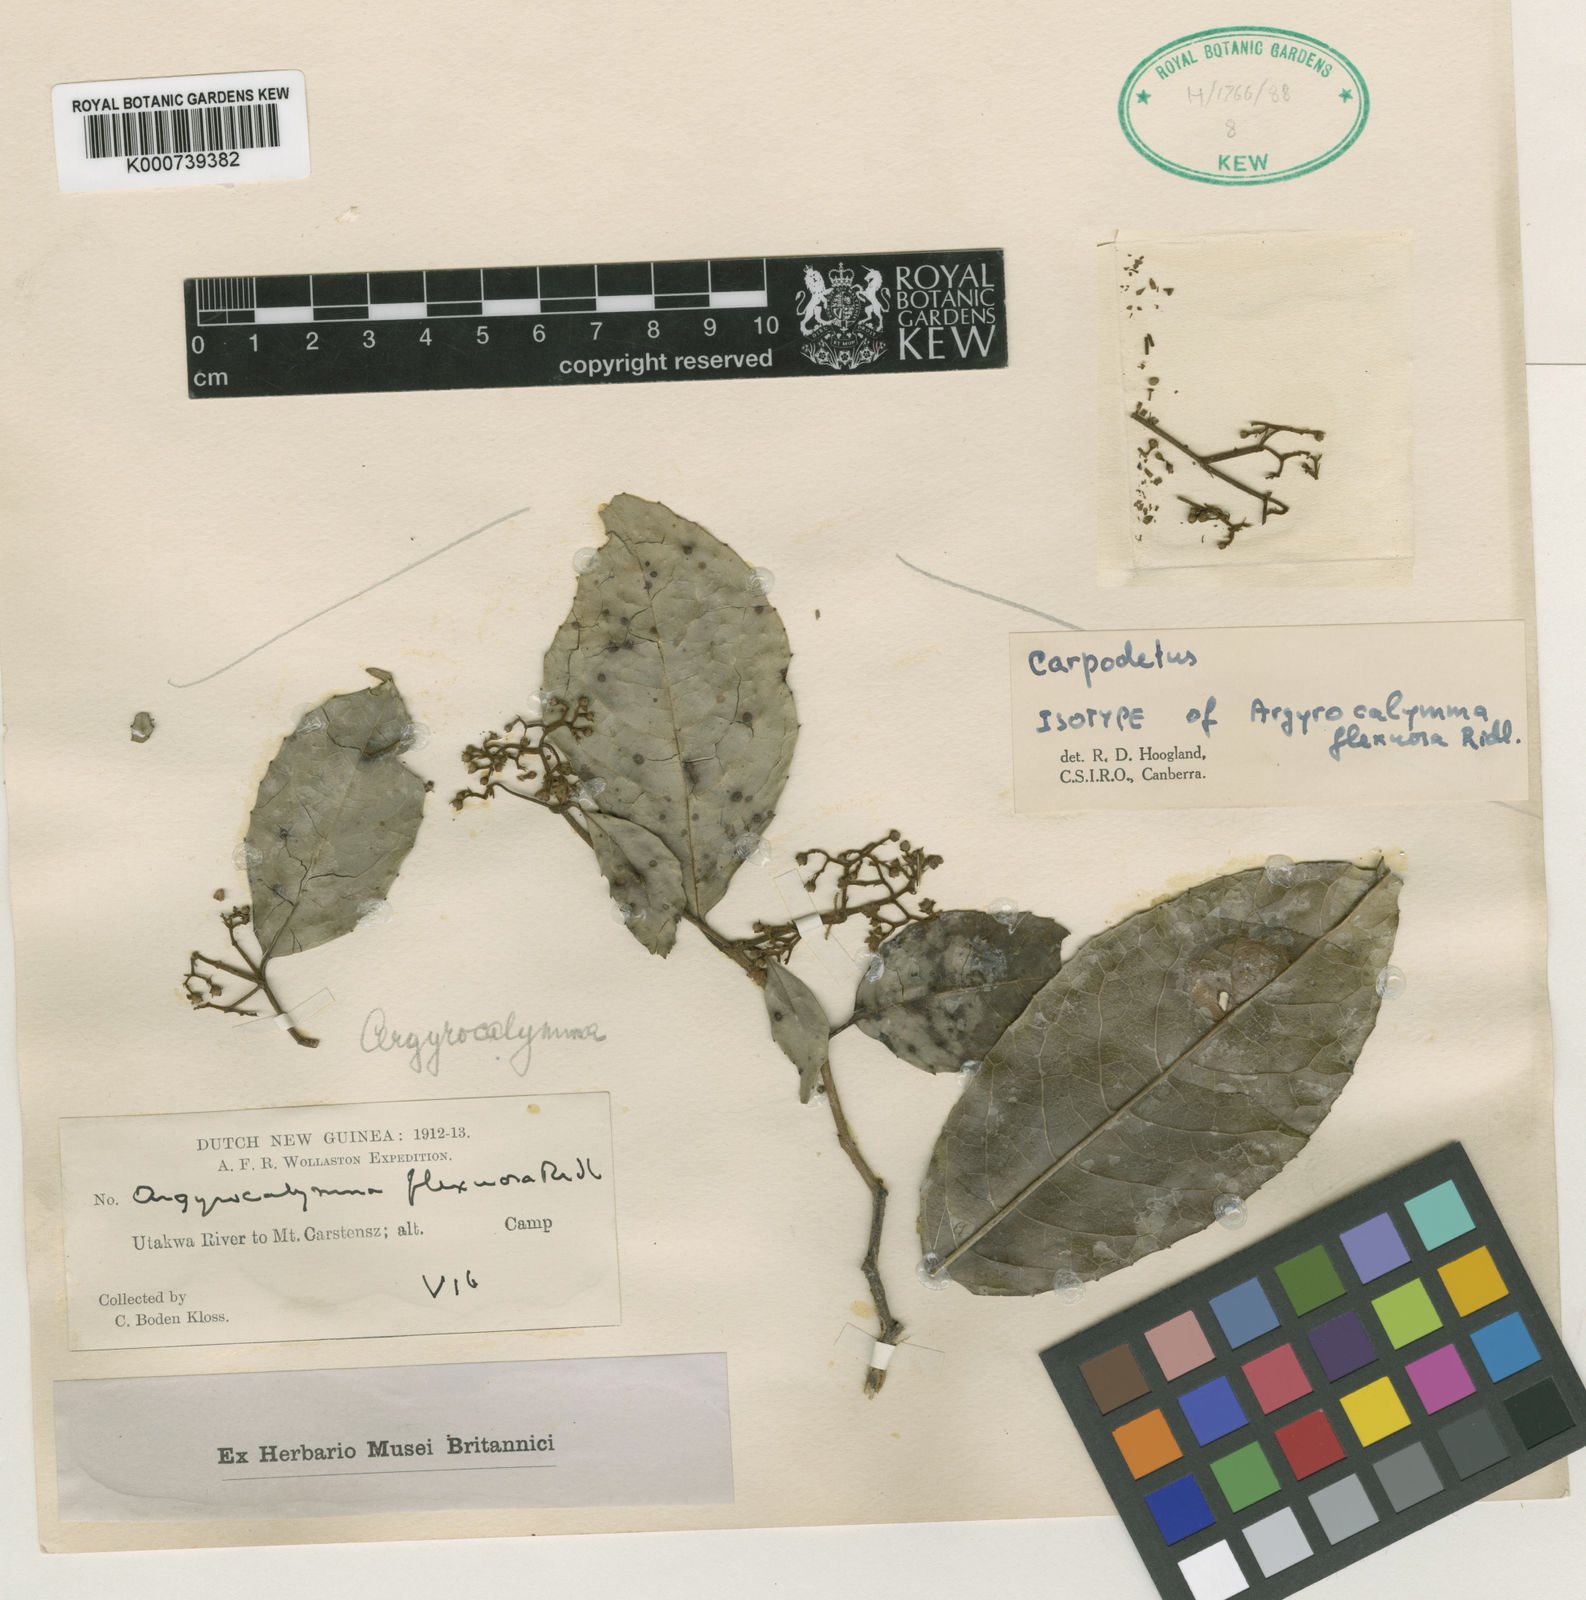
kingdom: Plantae
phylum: Tracheophyta
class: Magnoliopsida
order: Asterales
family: Rousseaceae
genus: Carpodetus
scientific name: Carpodetus arboreus
